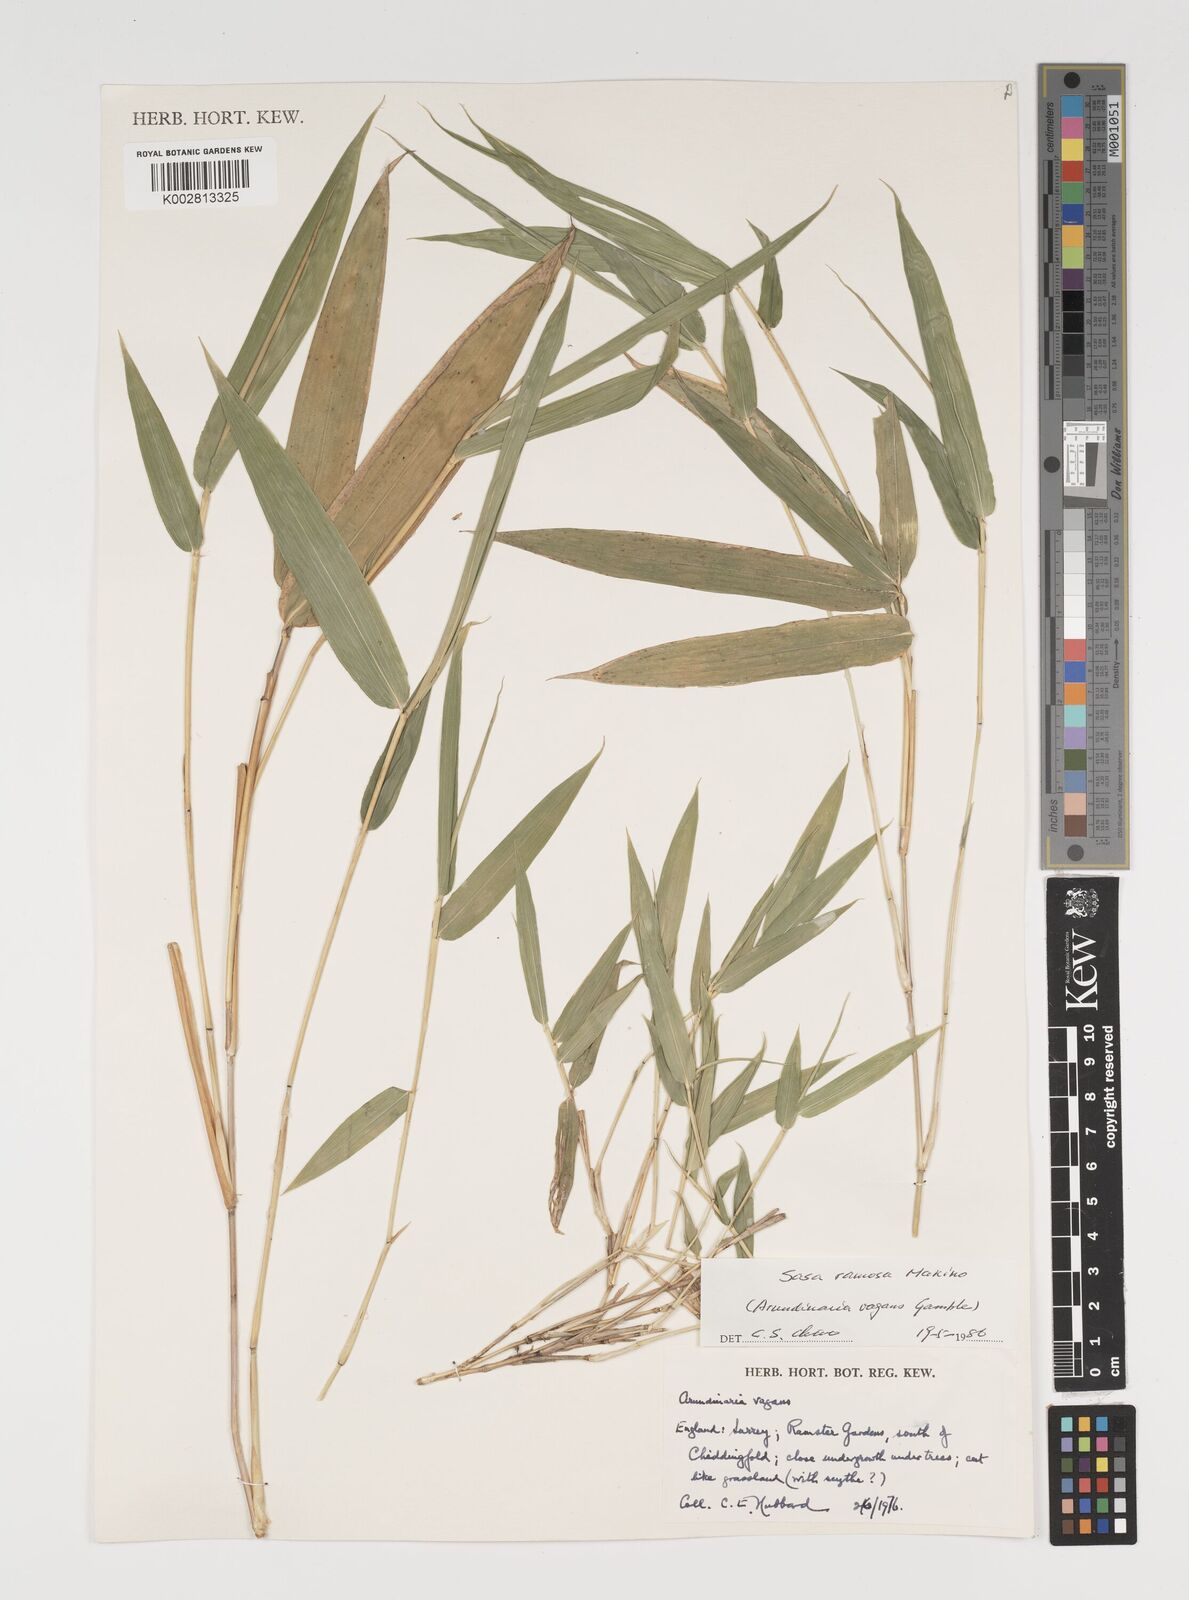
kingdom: Plantae
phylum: Tracheophyta
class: Liliopsida
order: Poales
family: Poaceae
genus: Sasaella
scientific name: Sasaella ramosa
